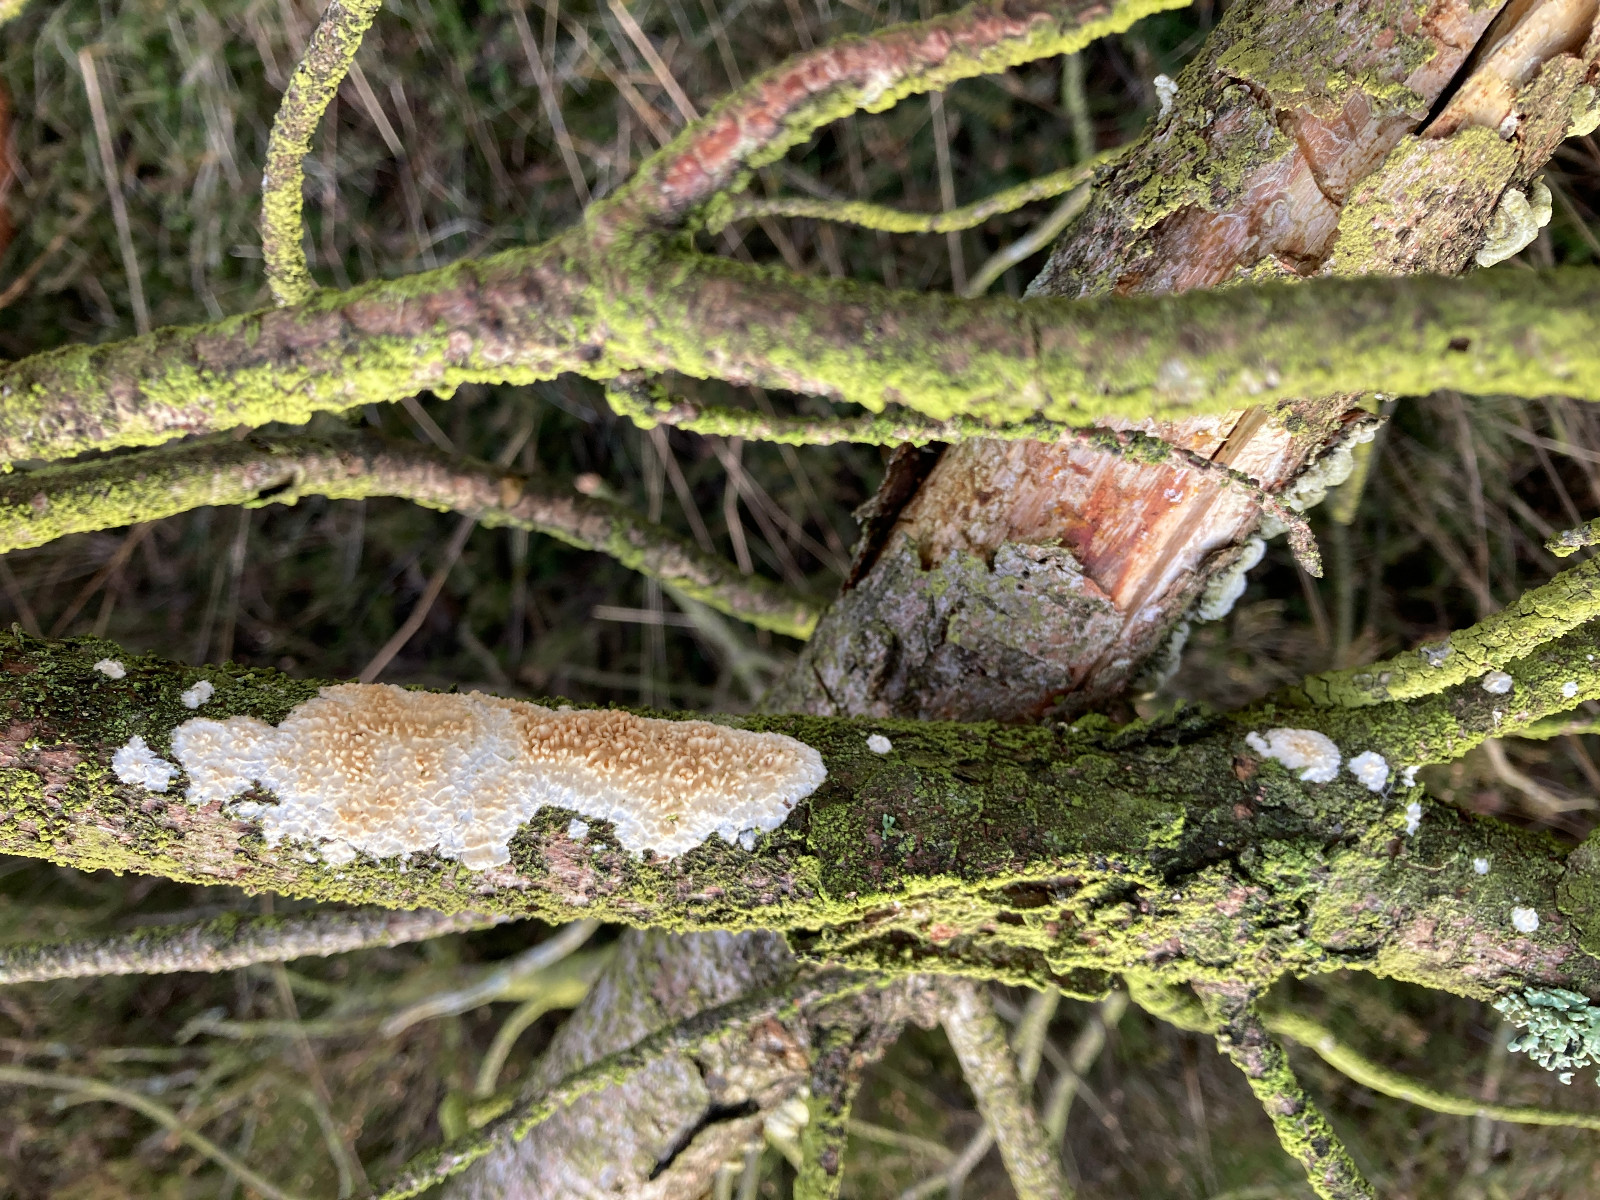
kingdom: Fungi
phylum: Basidiomycota
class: Agaricomycetes
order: Hymenochaetales
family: Schizoporaceae
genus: Xylodon
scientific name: Xylodon radula
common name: grovtandet kalkskind
